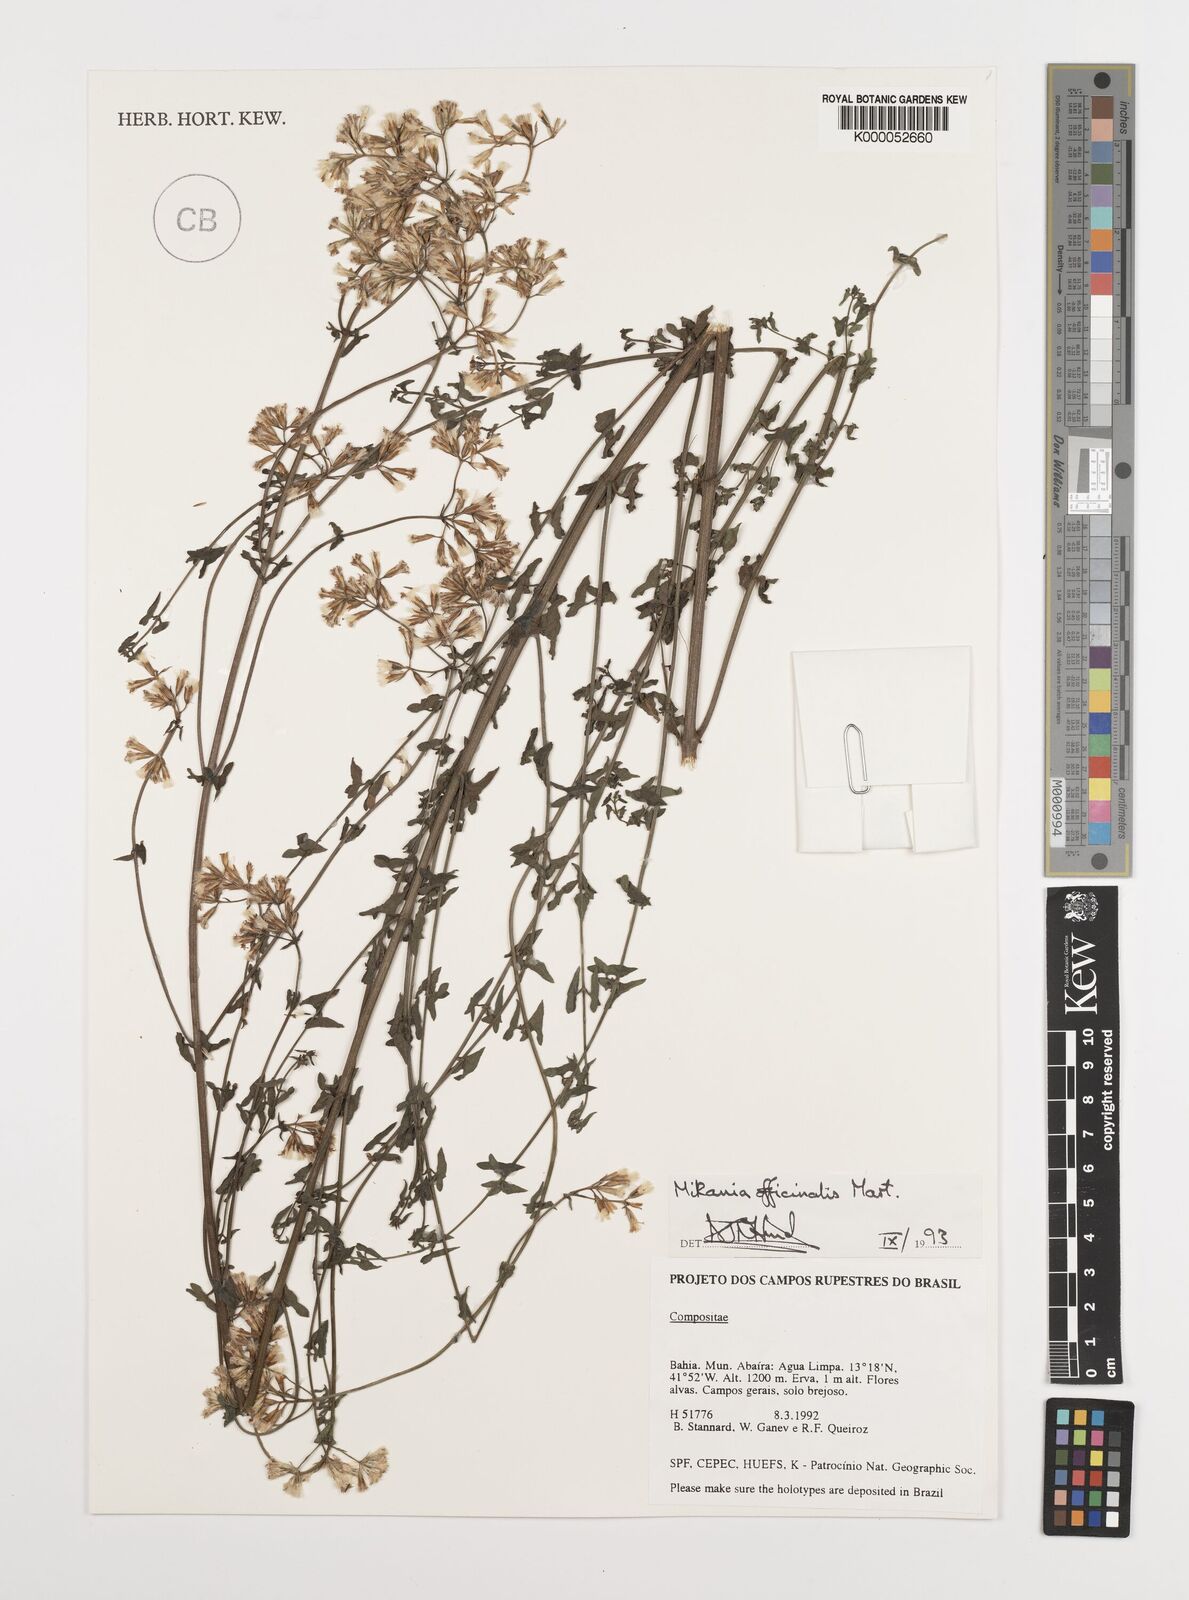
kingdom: Plantae
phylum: Tracheophyta
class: Magnoliopsida
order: Asterales
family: Asteraceae
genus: Mikania
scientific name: Mikania officinalis
